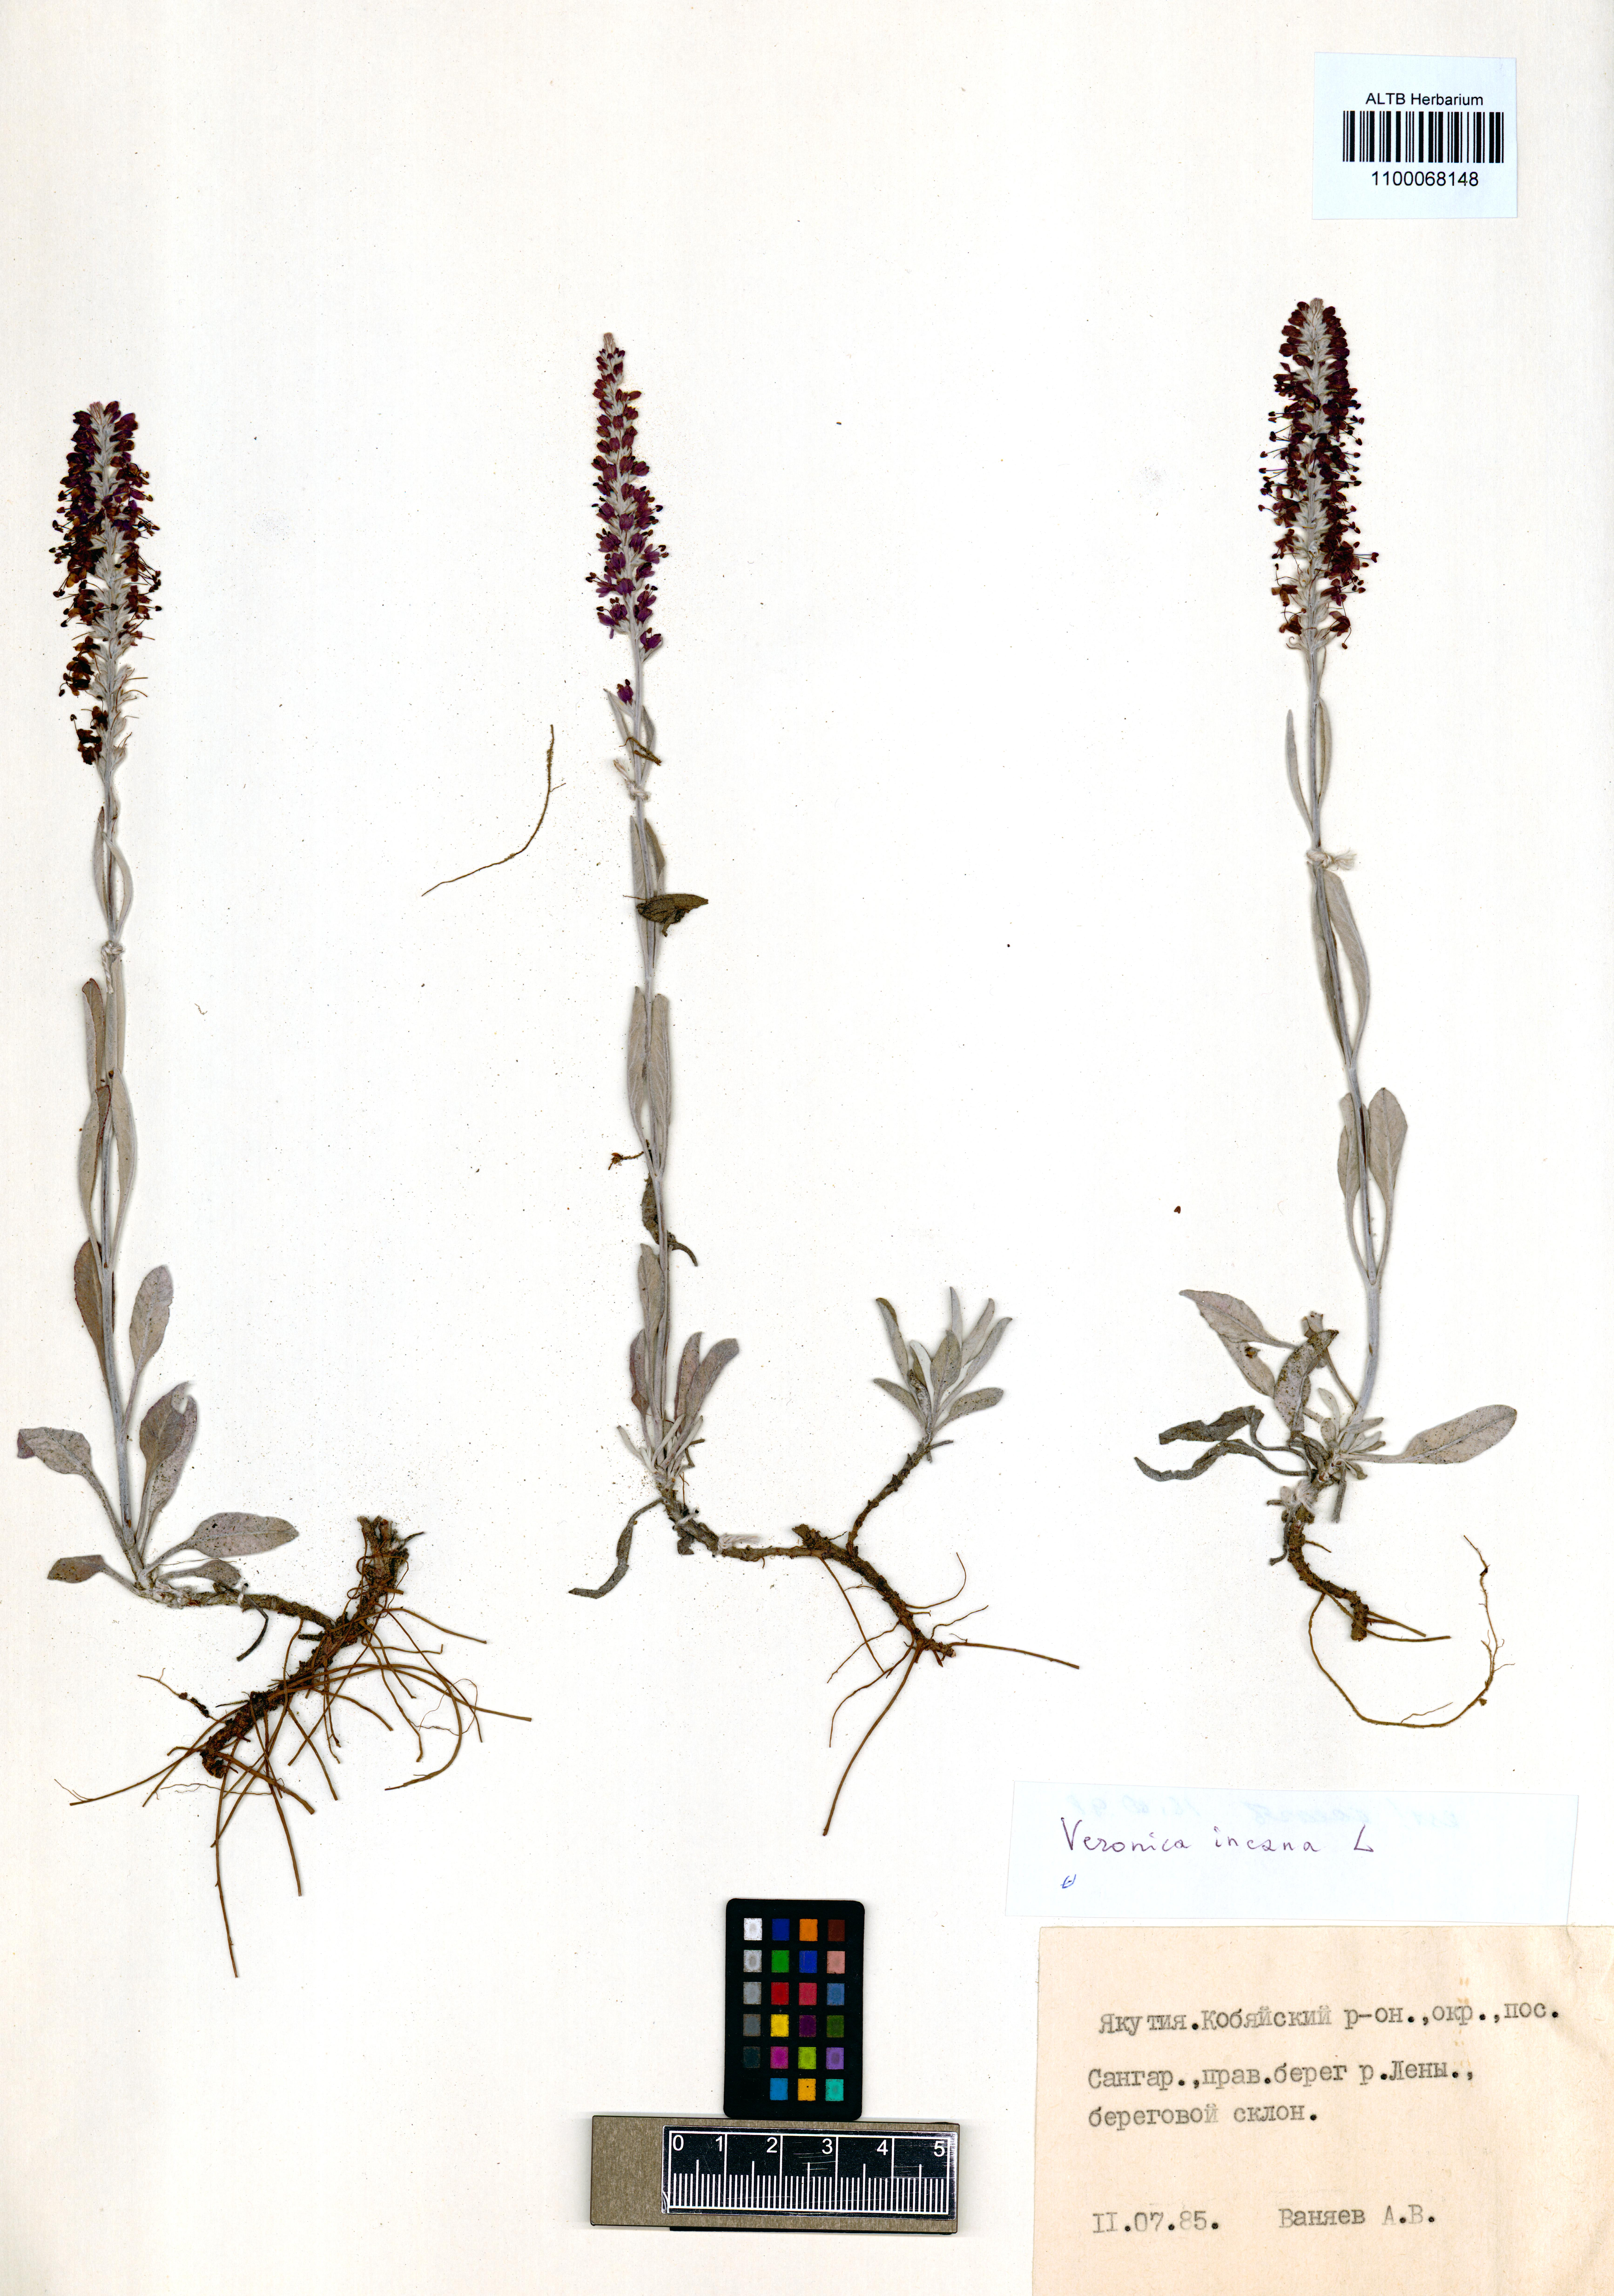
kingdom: Plantae
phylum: Tracheophyta
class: Magnoliopsida
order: Lamiales
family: Plantaginaceae
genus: Veronica
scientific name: Veronica incana
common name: Silver speedwell
